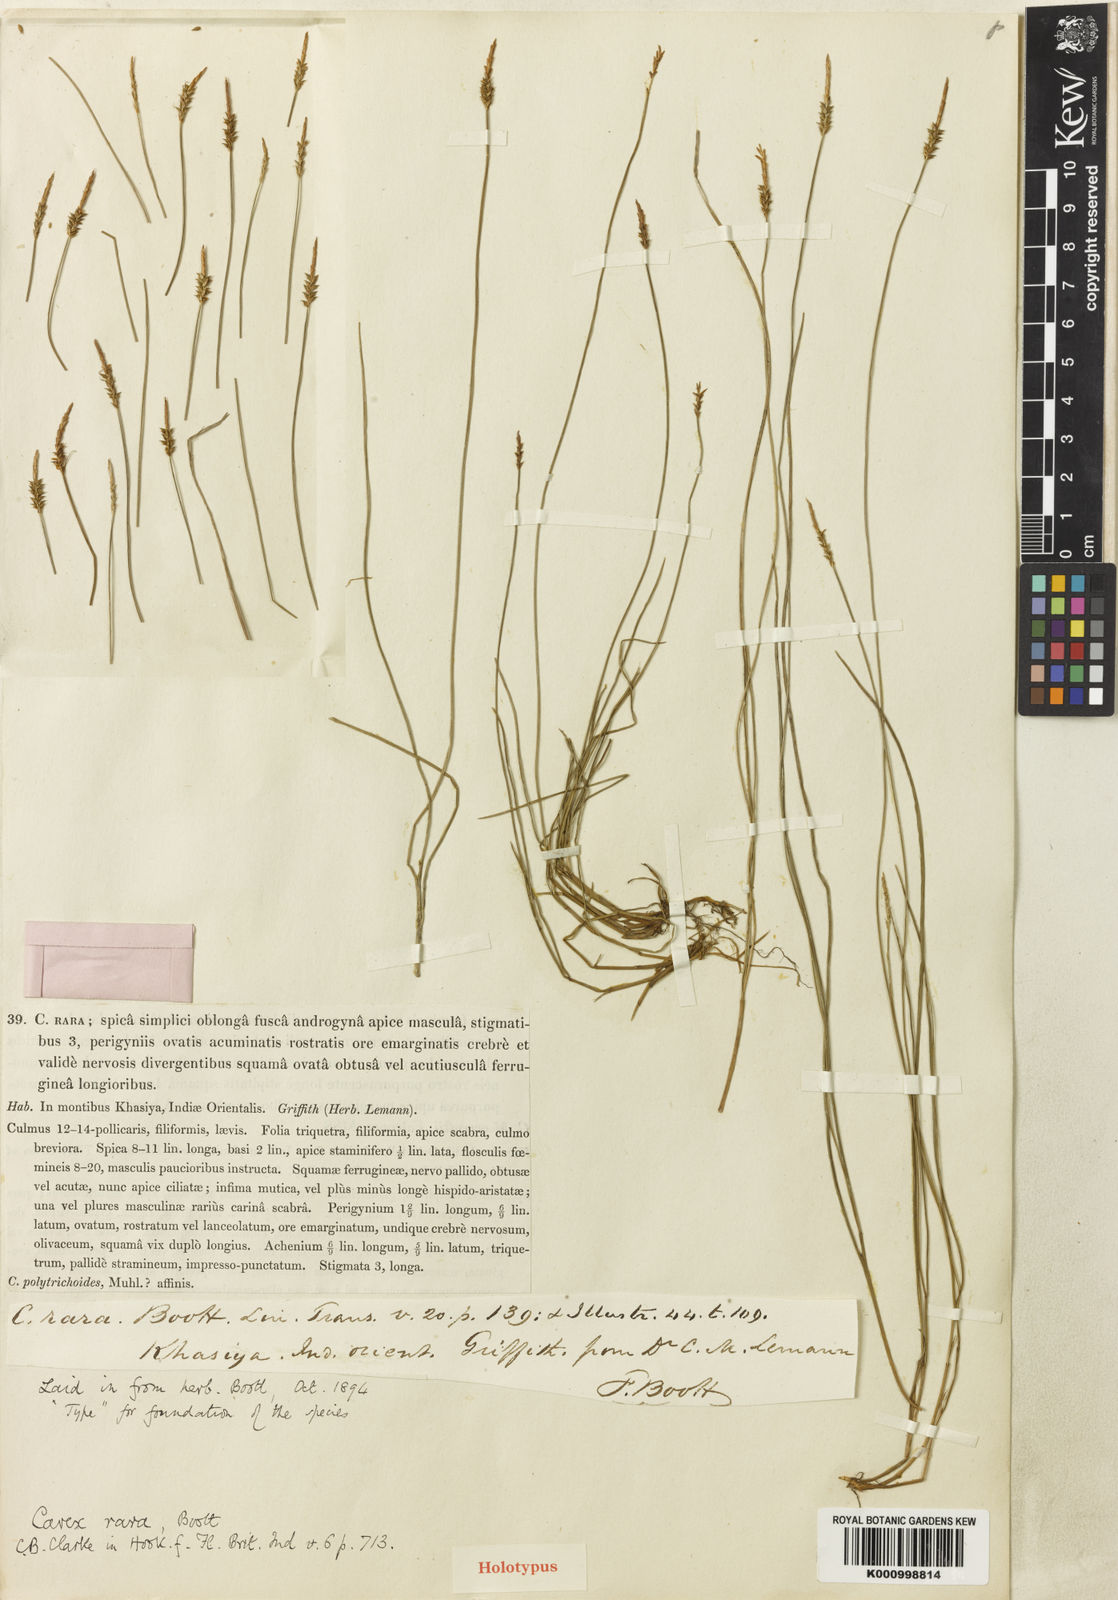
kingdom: Plantae
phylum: Tracheophyta
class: Liliopsida
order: Poales
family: Cyperaceae
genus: Carex
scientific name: Carex rara
